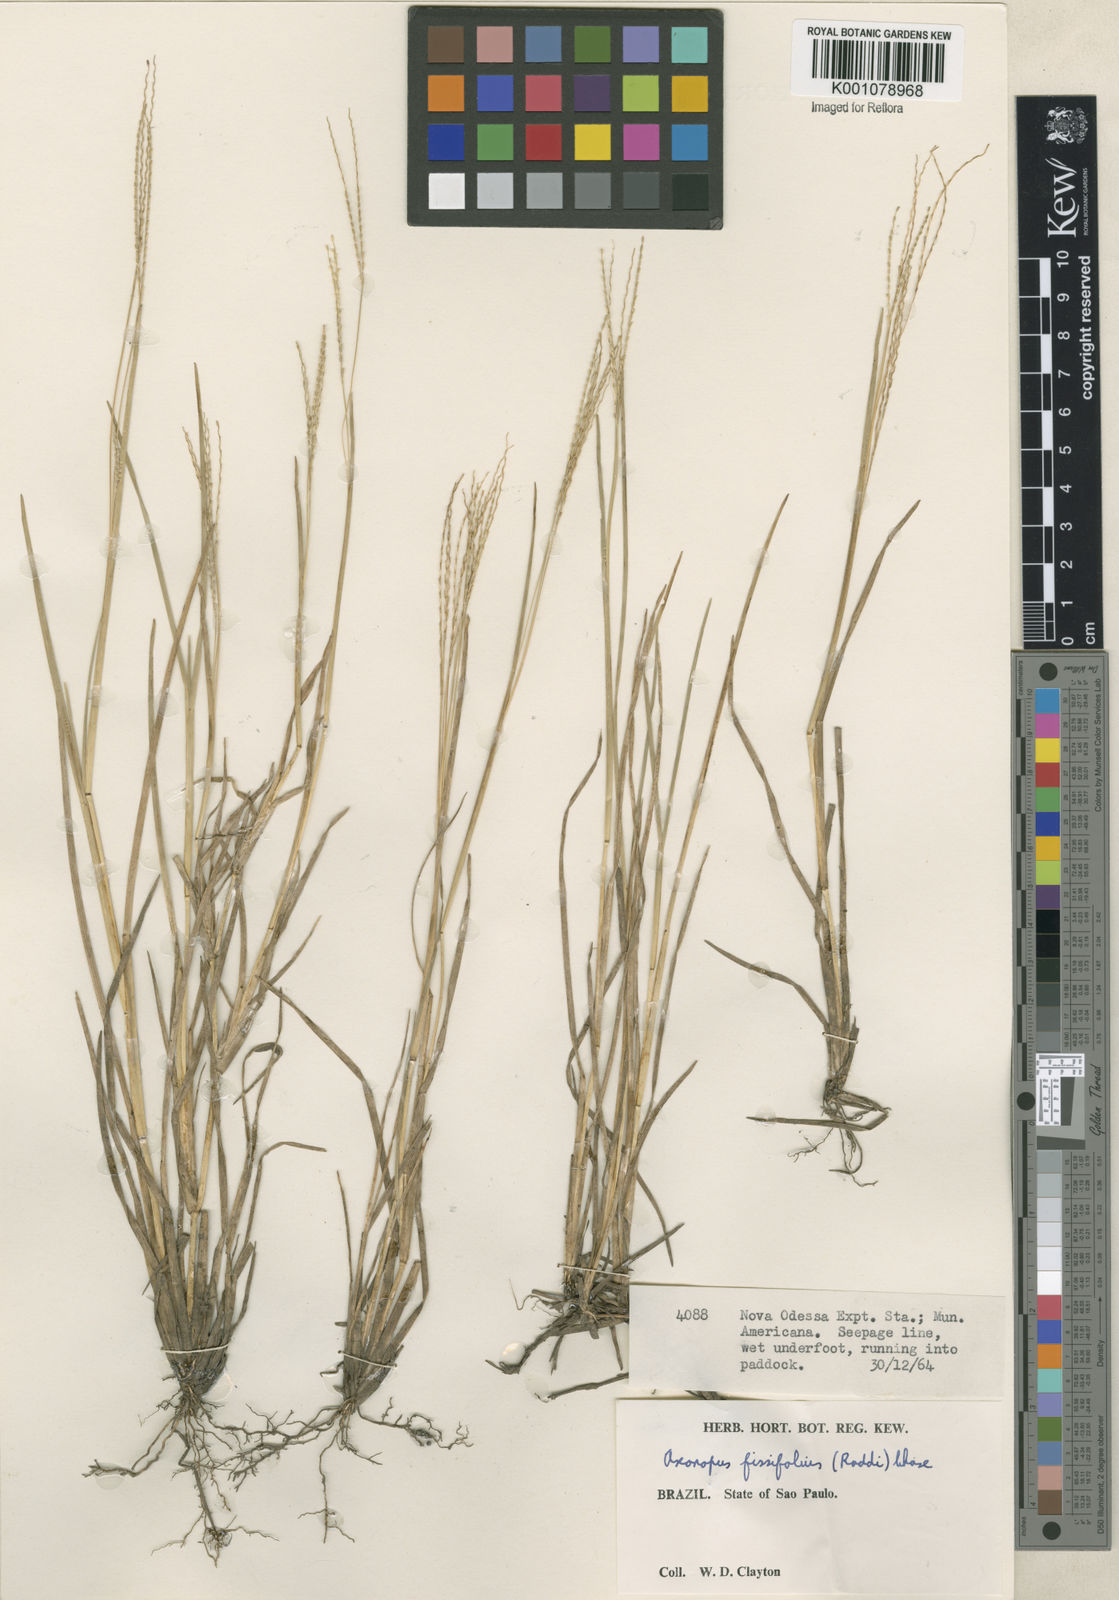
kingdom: Plantae
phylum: Tracheophyta
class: Liliopsida
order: Poales
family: Poaceae
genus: Axonopus
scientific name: Axonopus fissifolius
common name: Common carpetgrass
